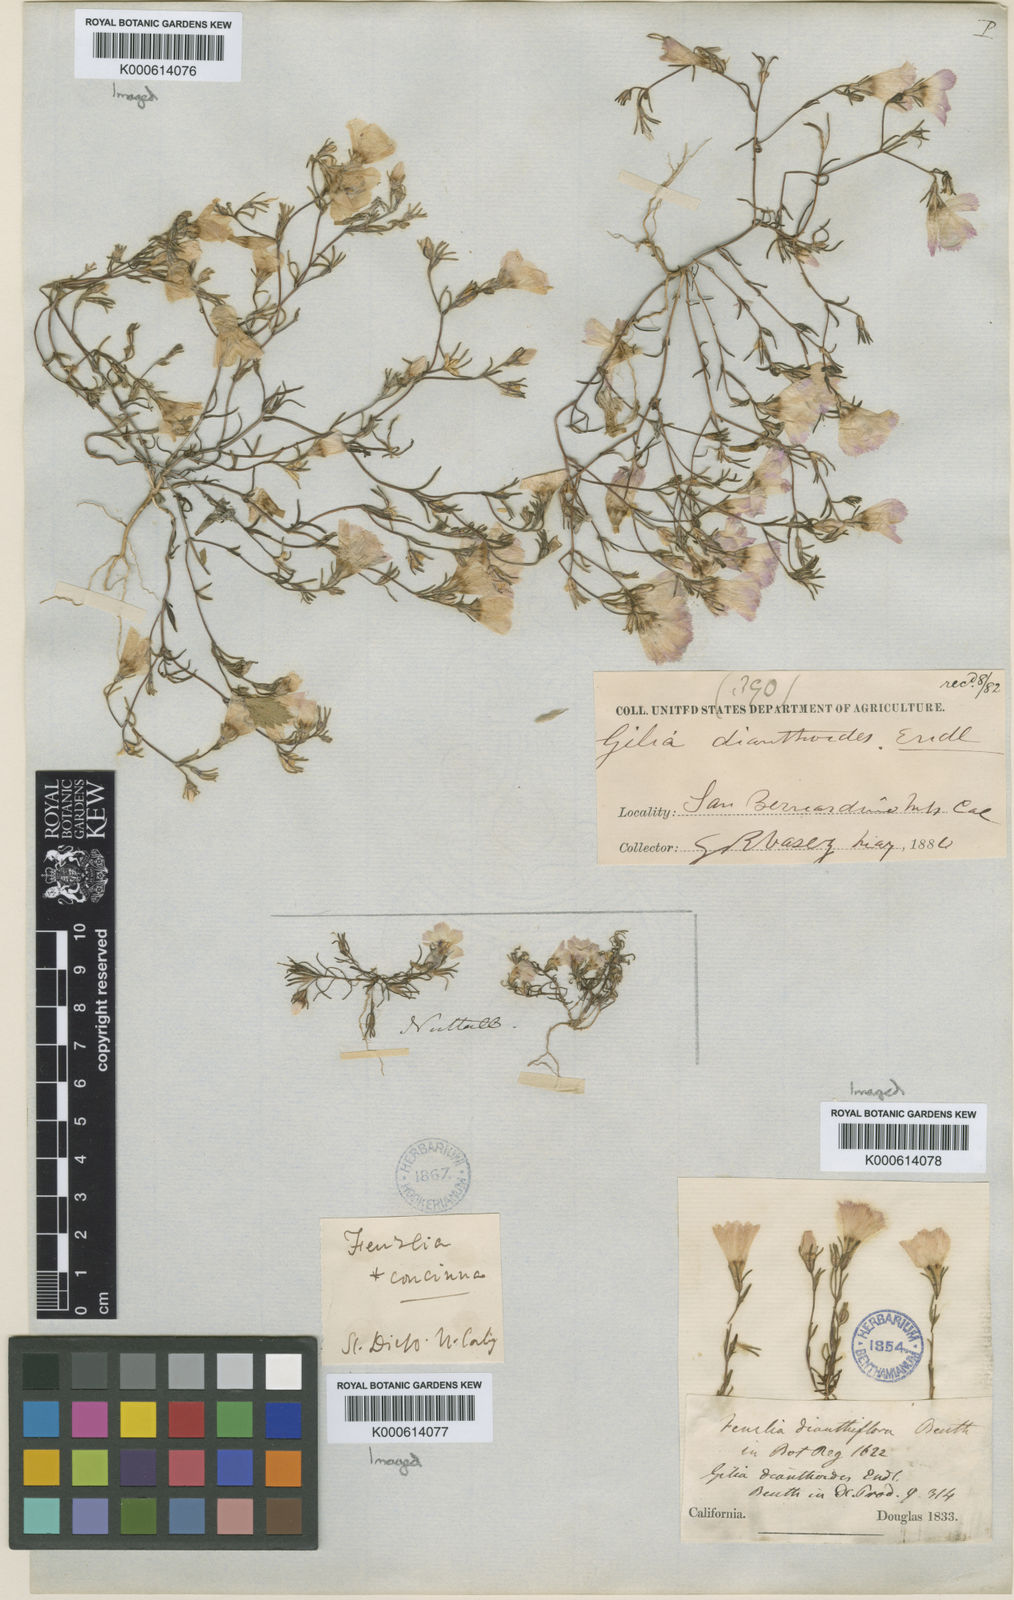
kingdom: Plantae
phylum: Tracheophyta
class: Magnoliopsida
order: Ericales
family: Polemoniaceae
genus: Linanthus
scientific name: Linanthus dianthiflorus
